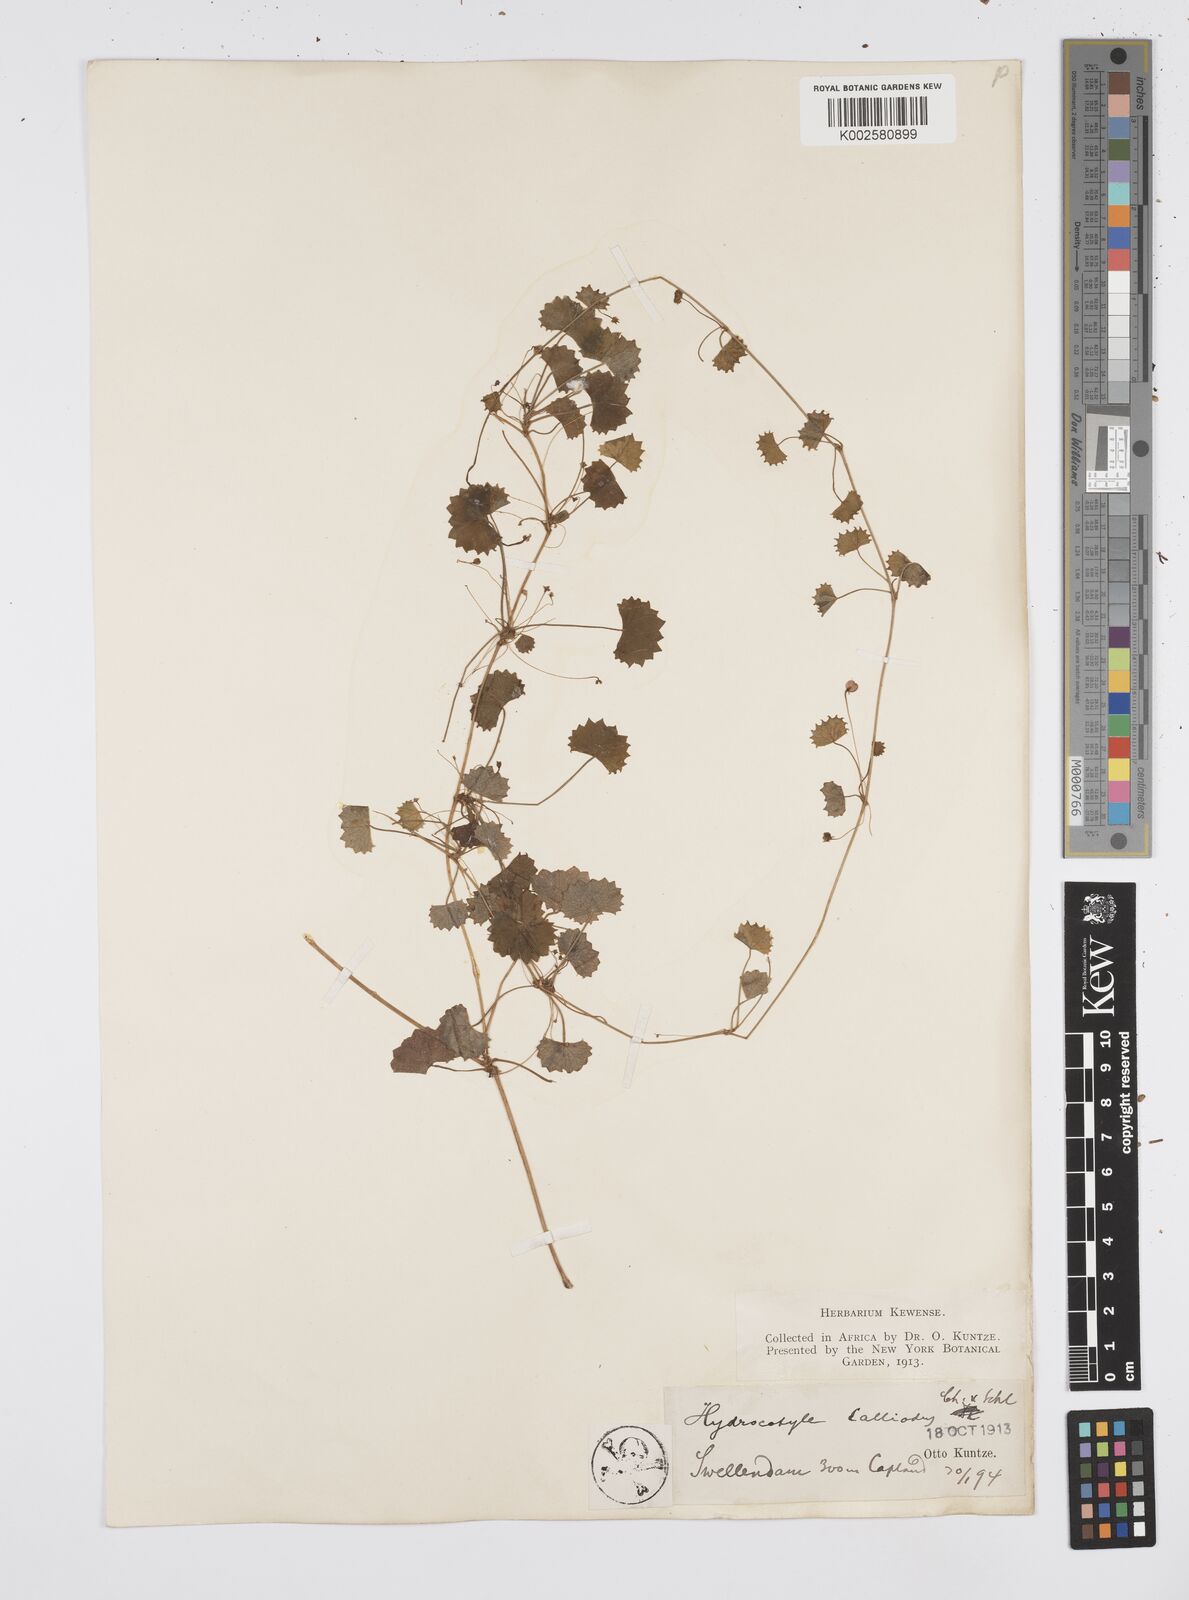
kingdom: Plantae
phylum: Tracheophyta
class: Magnoliopsida
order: Apiales
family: Apiaceae
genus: Centella
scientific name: Centella
